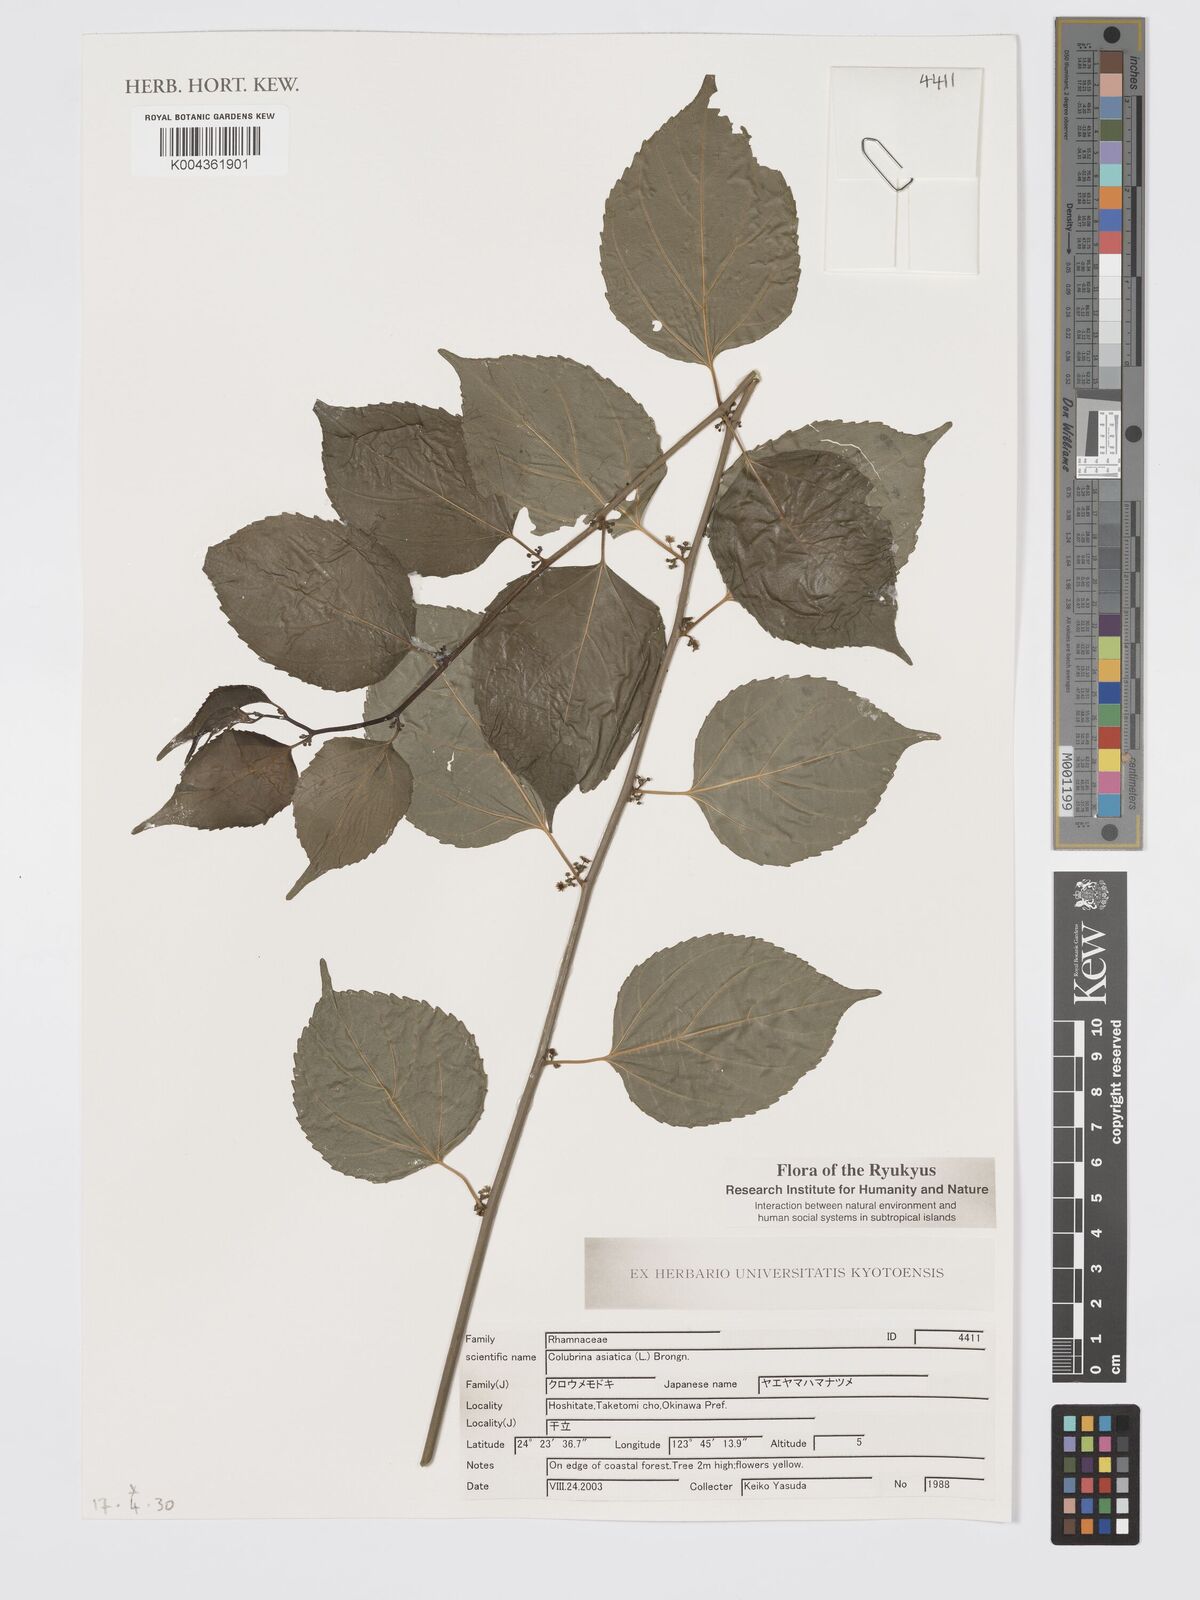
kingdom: Plantae
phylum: Tracheophyta
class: Magnoliopsida
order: Rosales
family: Rhamnaceae
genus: Colubrina
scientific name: Colubrina asiatica
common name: Asian nakedwood
